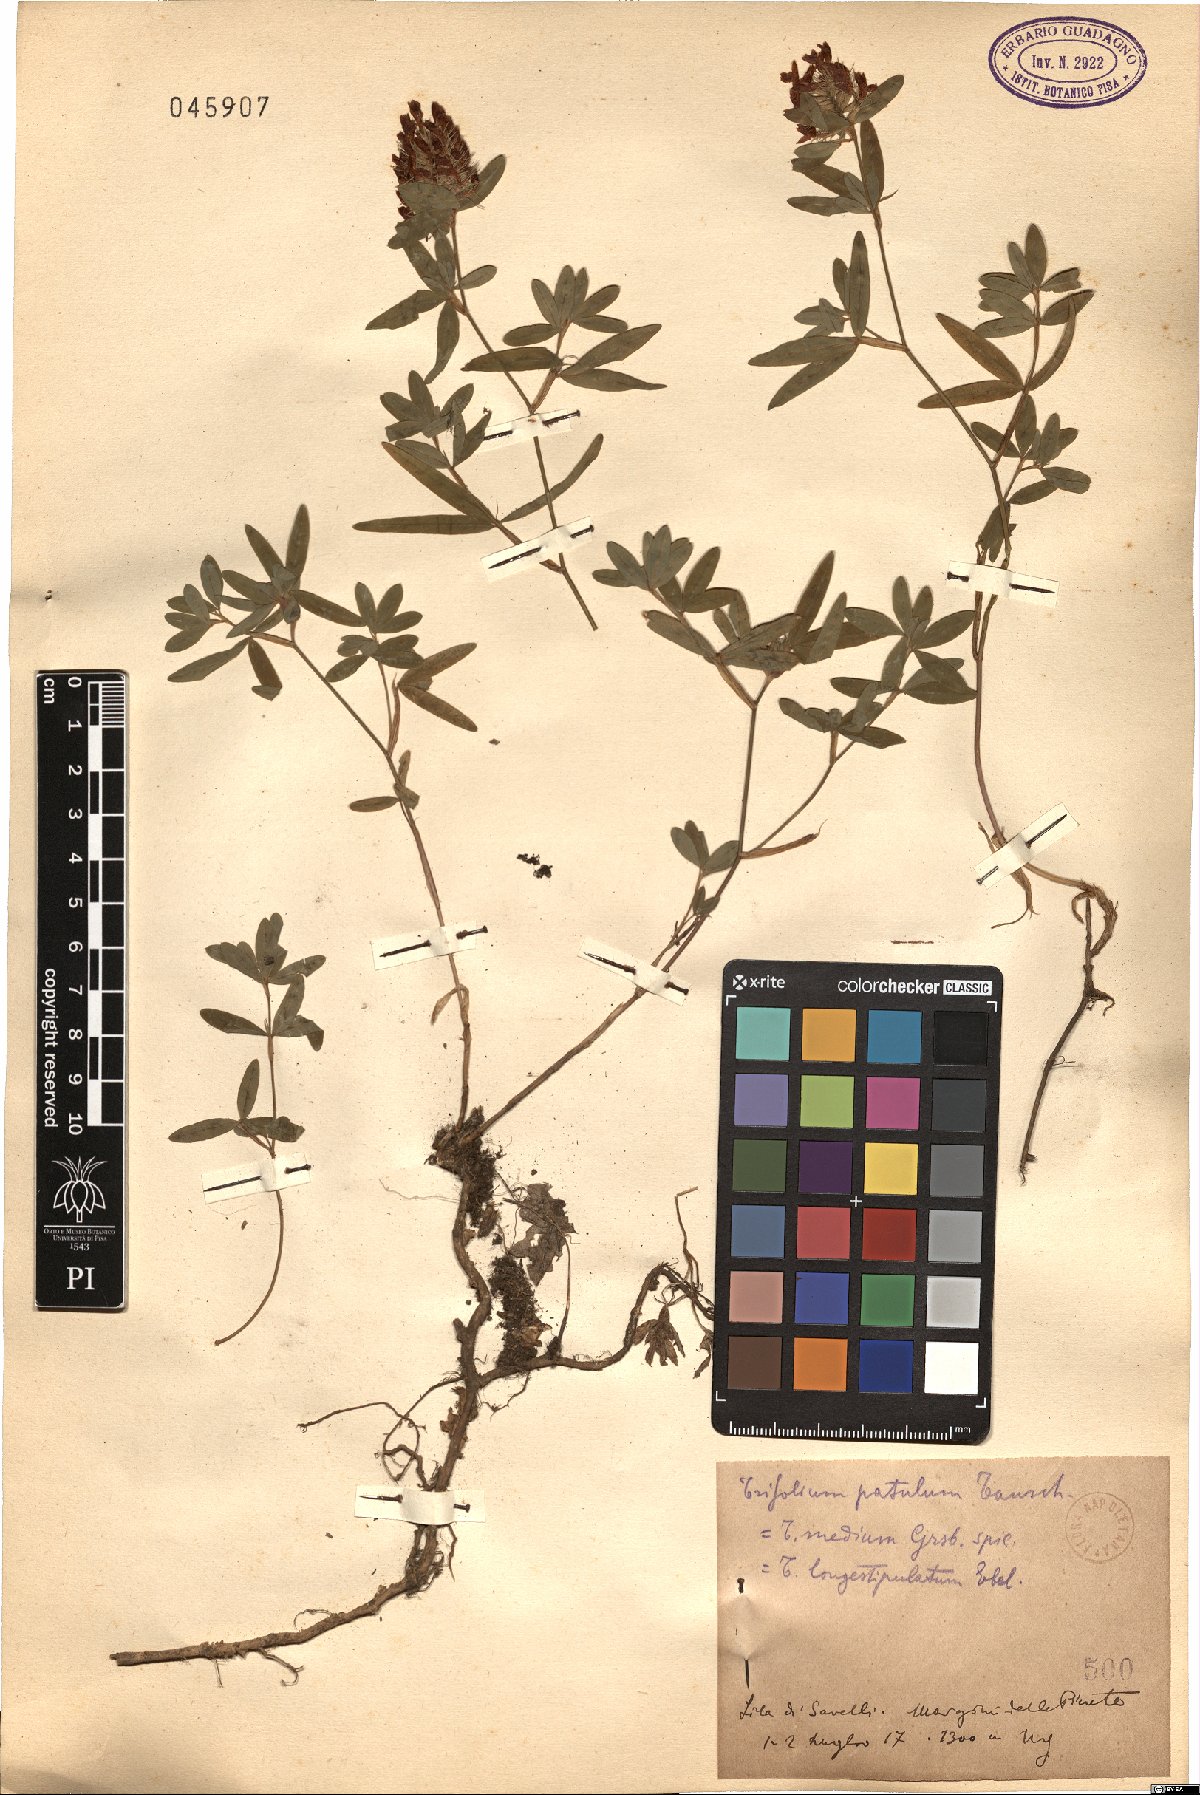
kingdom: Plantae
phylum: Tracheophyta
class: Magnoliopsida
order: Fabales
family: Fabaceae
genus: Trifolium
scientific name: Trifolium patulum
